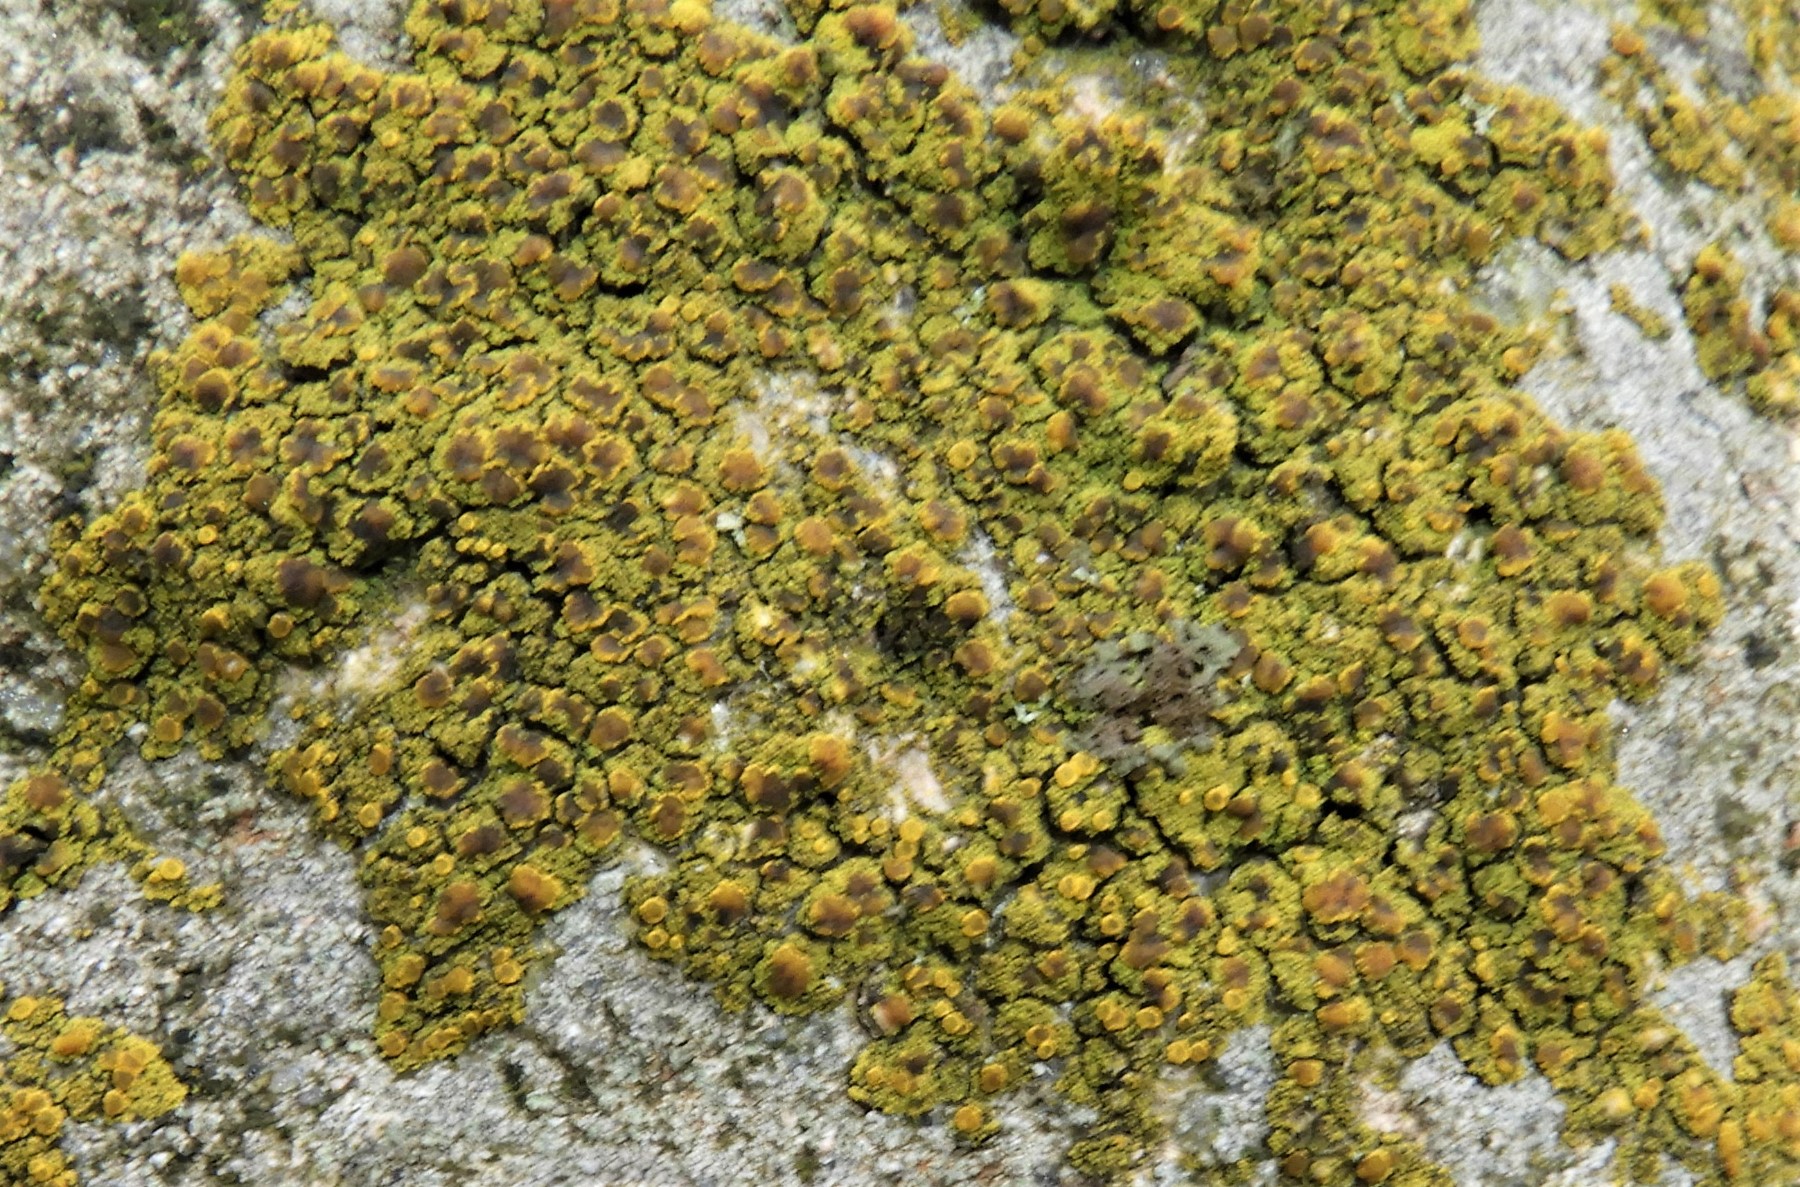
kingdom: Fungi
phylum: Ascomycota
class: Candelariomycetes
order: Candelariales
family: Candelariaceae
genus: Candelariella
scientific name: Candelariella vitellina
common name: almindelig æggeblommelav
